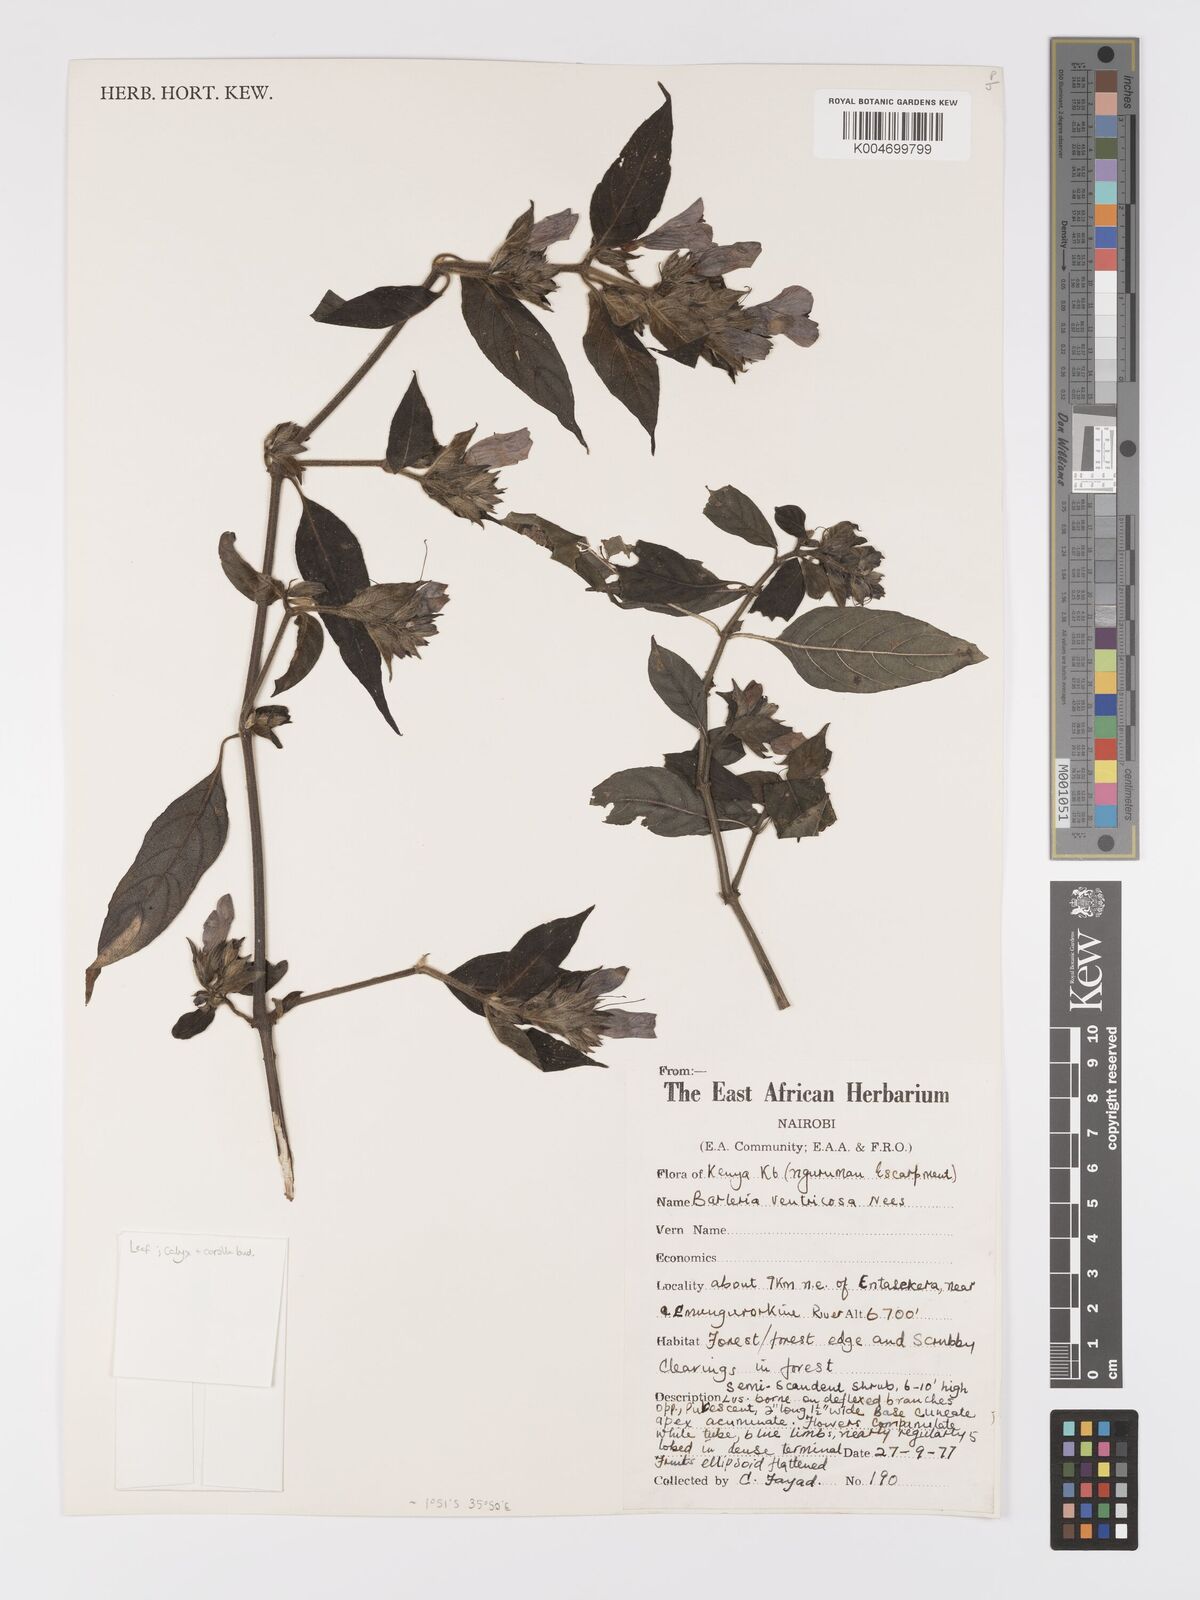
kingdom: Plantae
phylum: Tracheophyta
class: Magnoliopsida
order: Lamiales
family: Acanthaceae
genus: Barleria
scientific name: Barleria ventricosa
